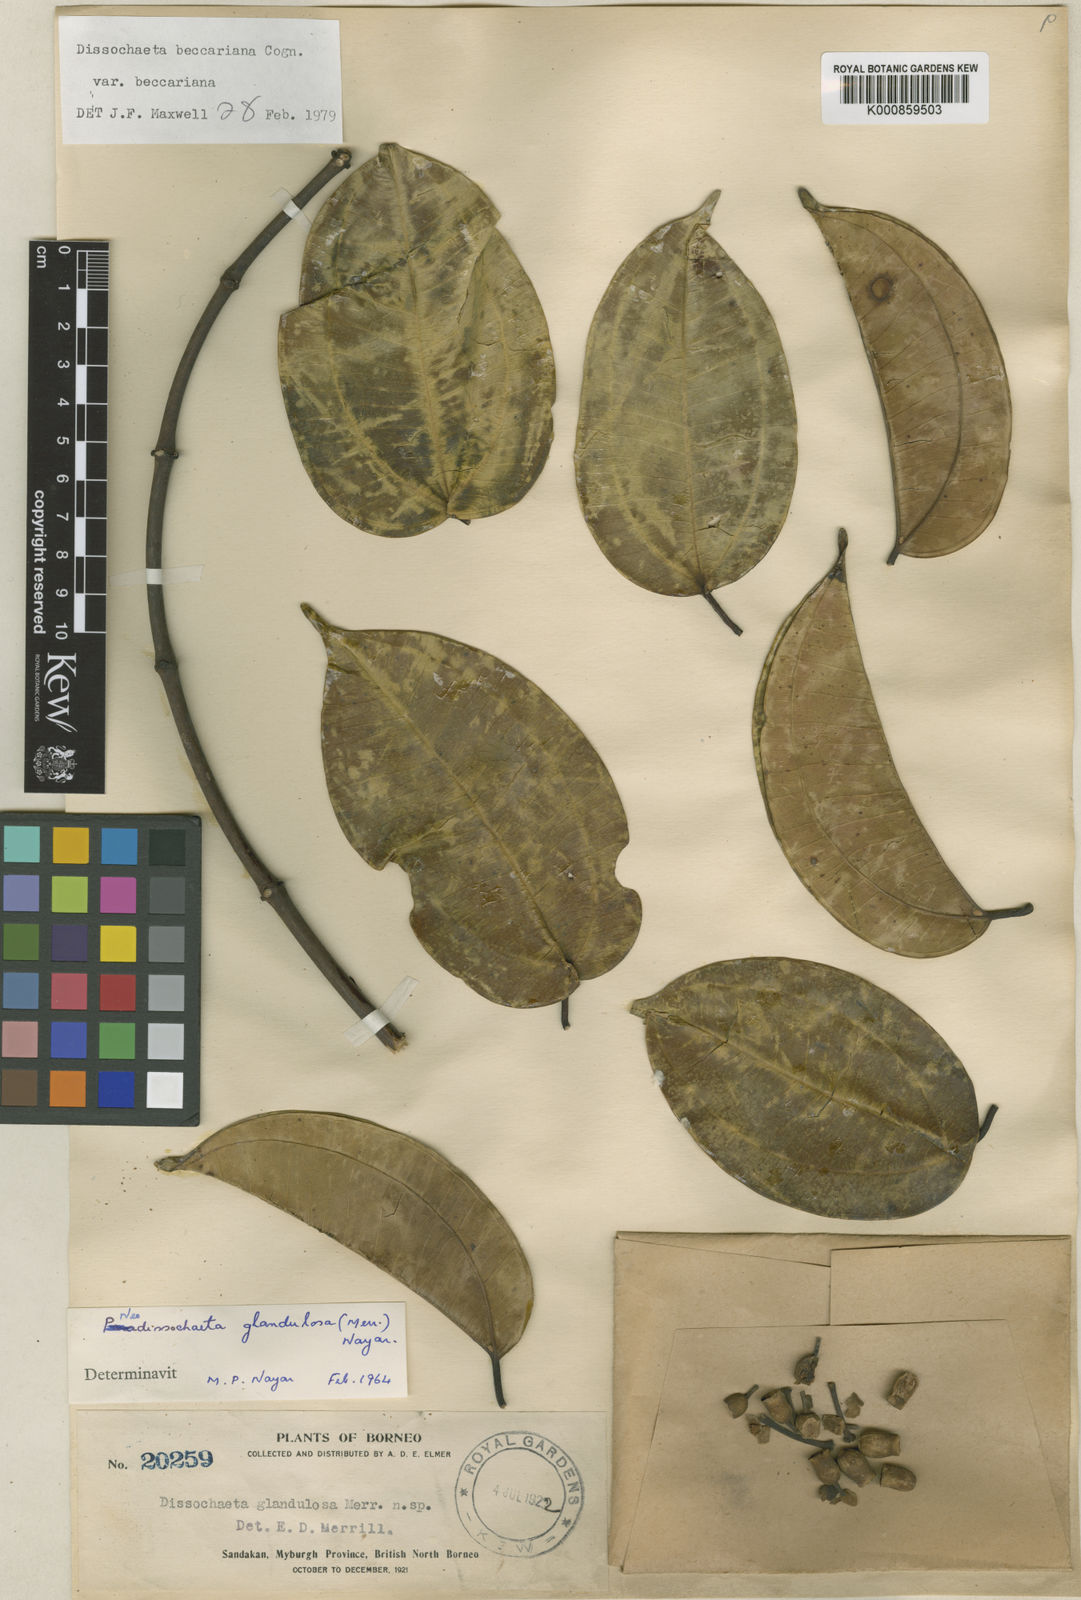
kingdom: Plantae
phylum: Tracheophyta
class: Magnoliopsida
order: Myrtales
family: Melastomataceae
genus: Dalenia
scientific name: Dalenia magnibracteata
